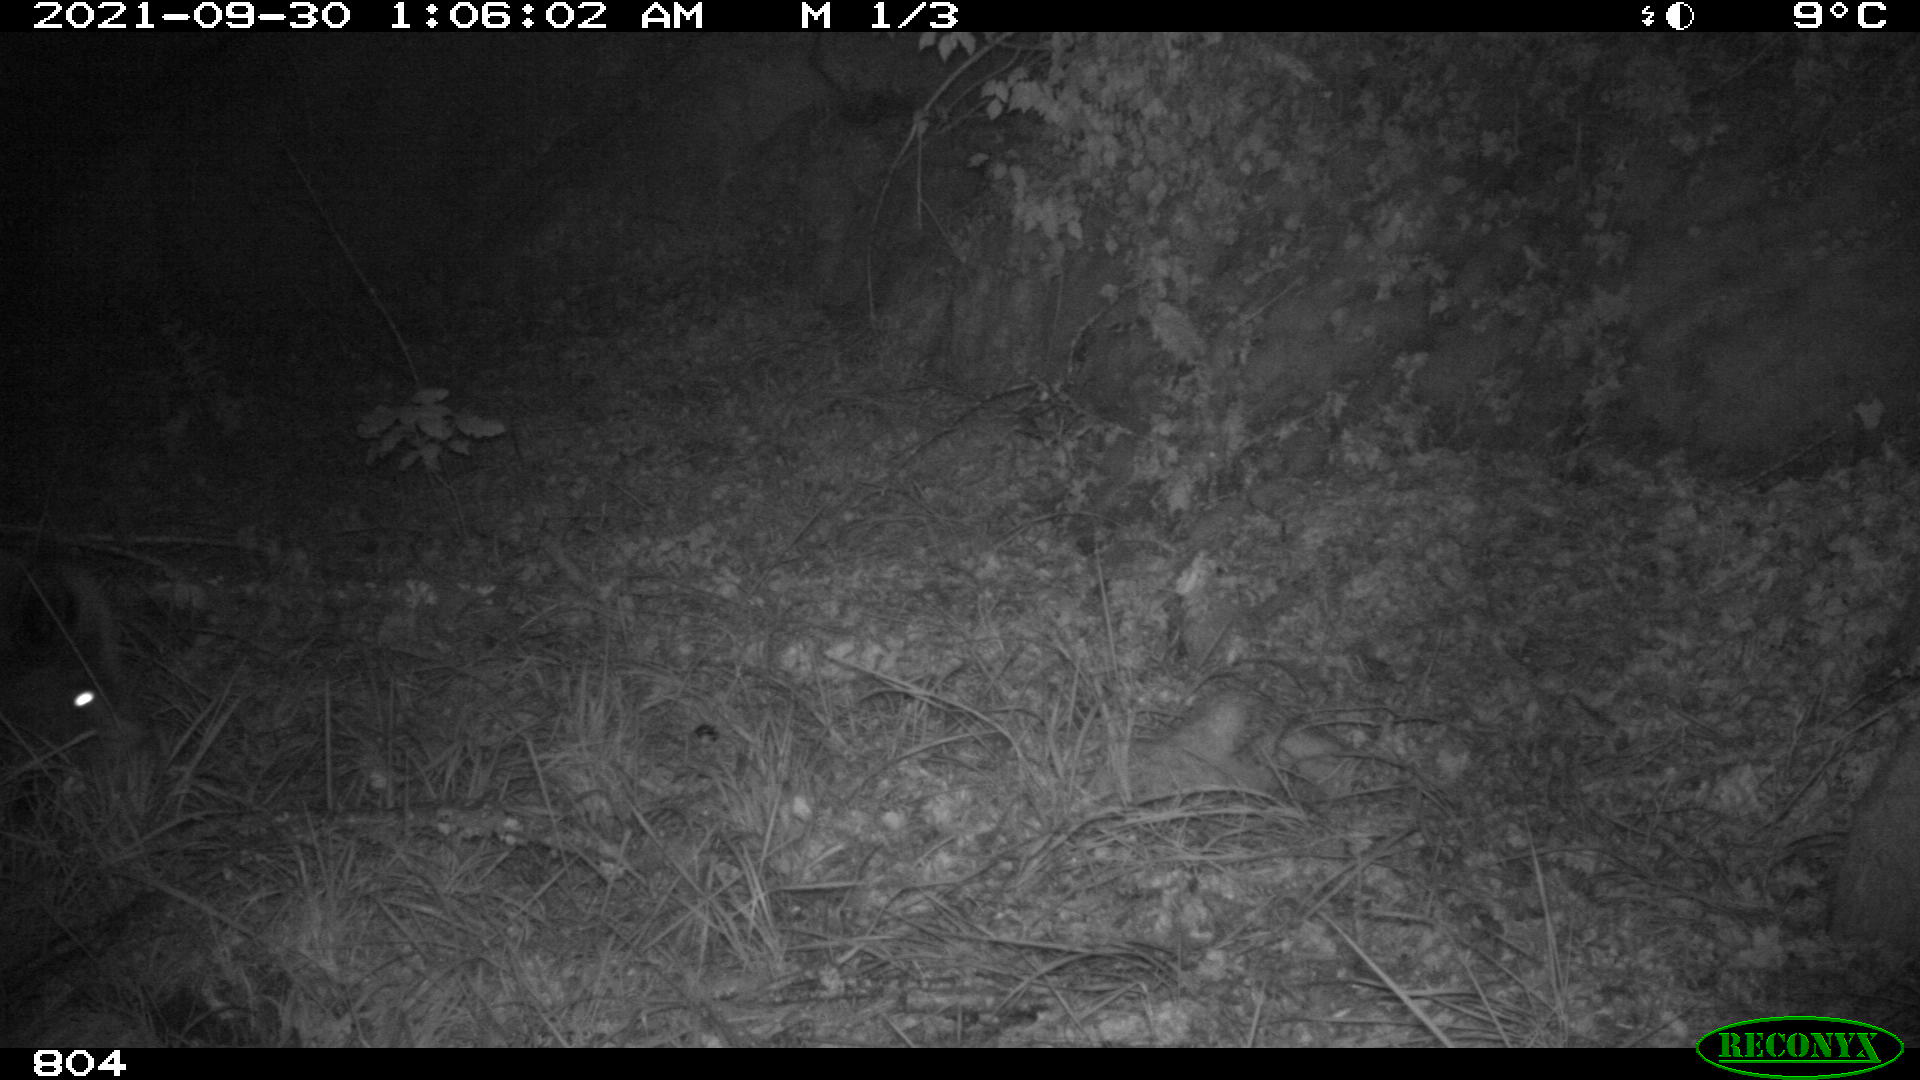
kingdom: Animalia
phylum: Chordata
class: Mammalia
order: Artiodactyla
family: Suidae
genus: Sus
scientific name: Sus scrofa
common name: Wild boar
